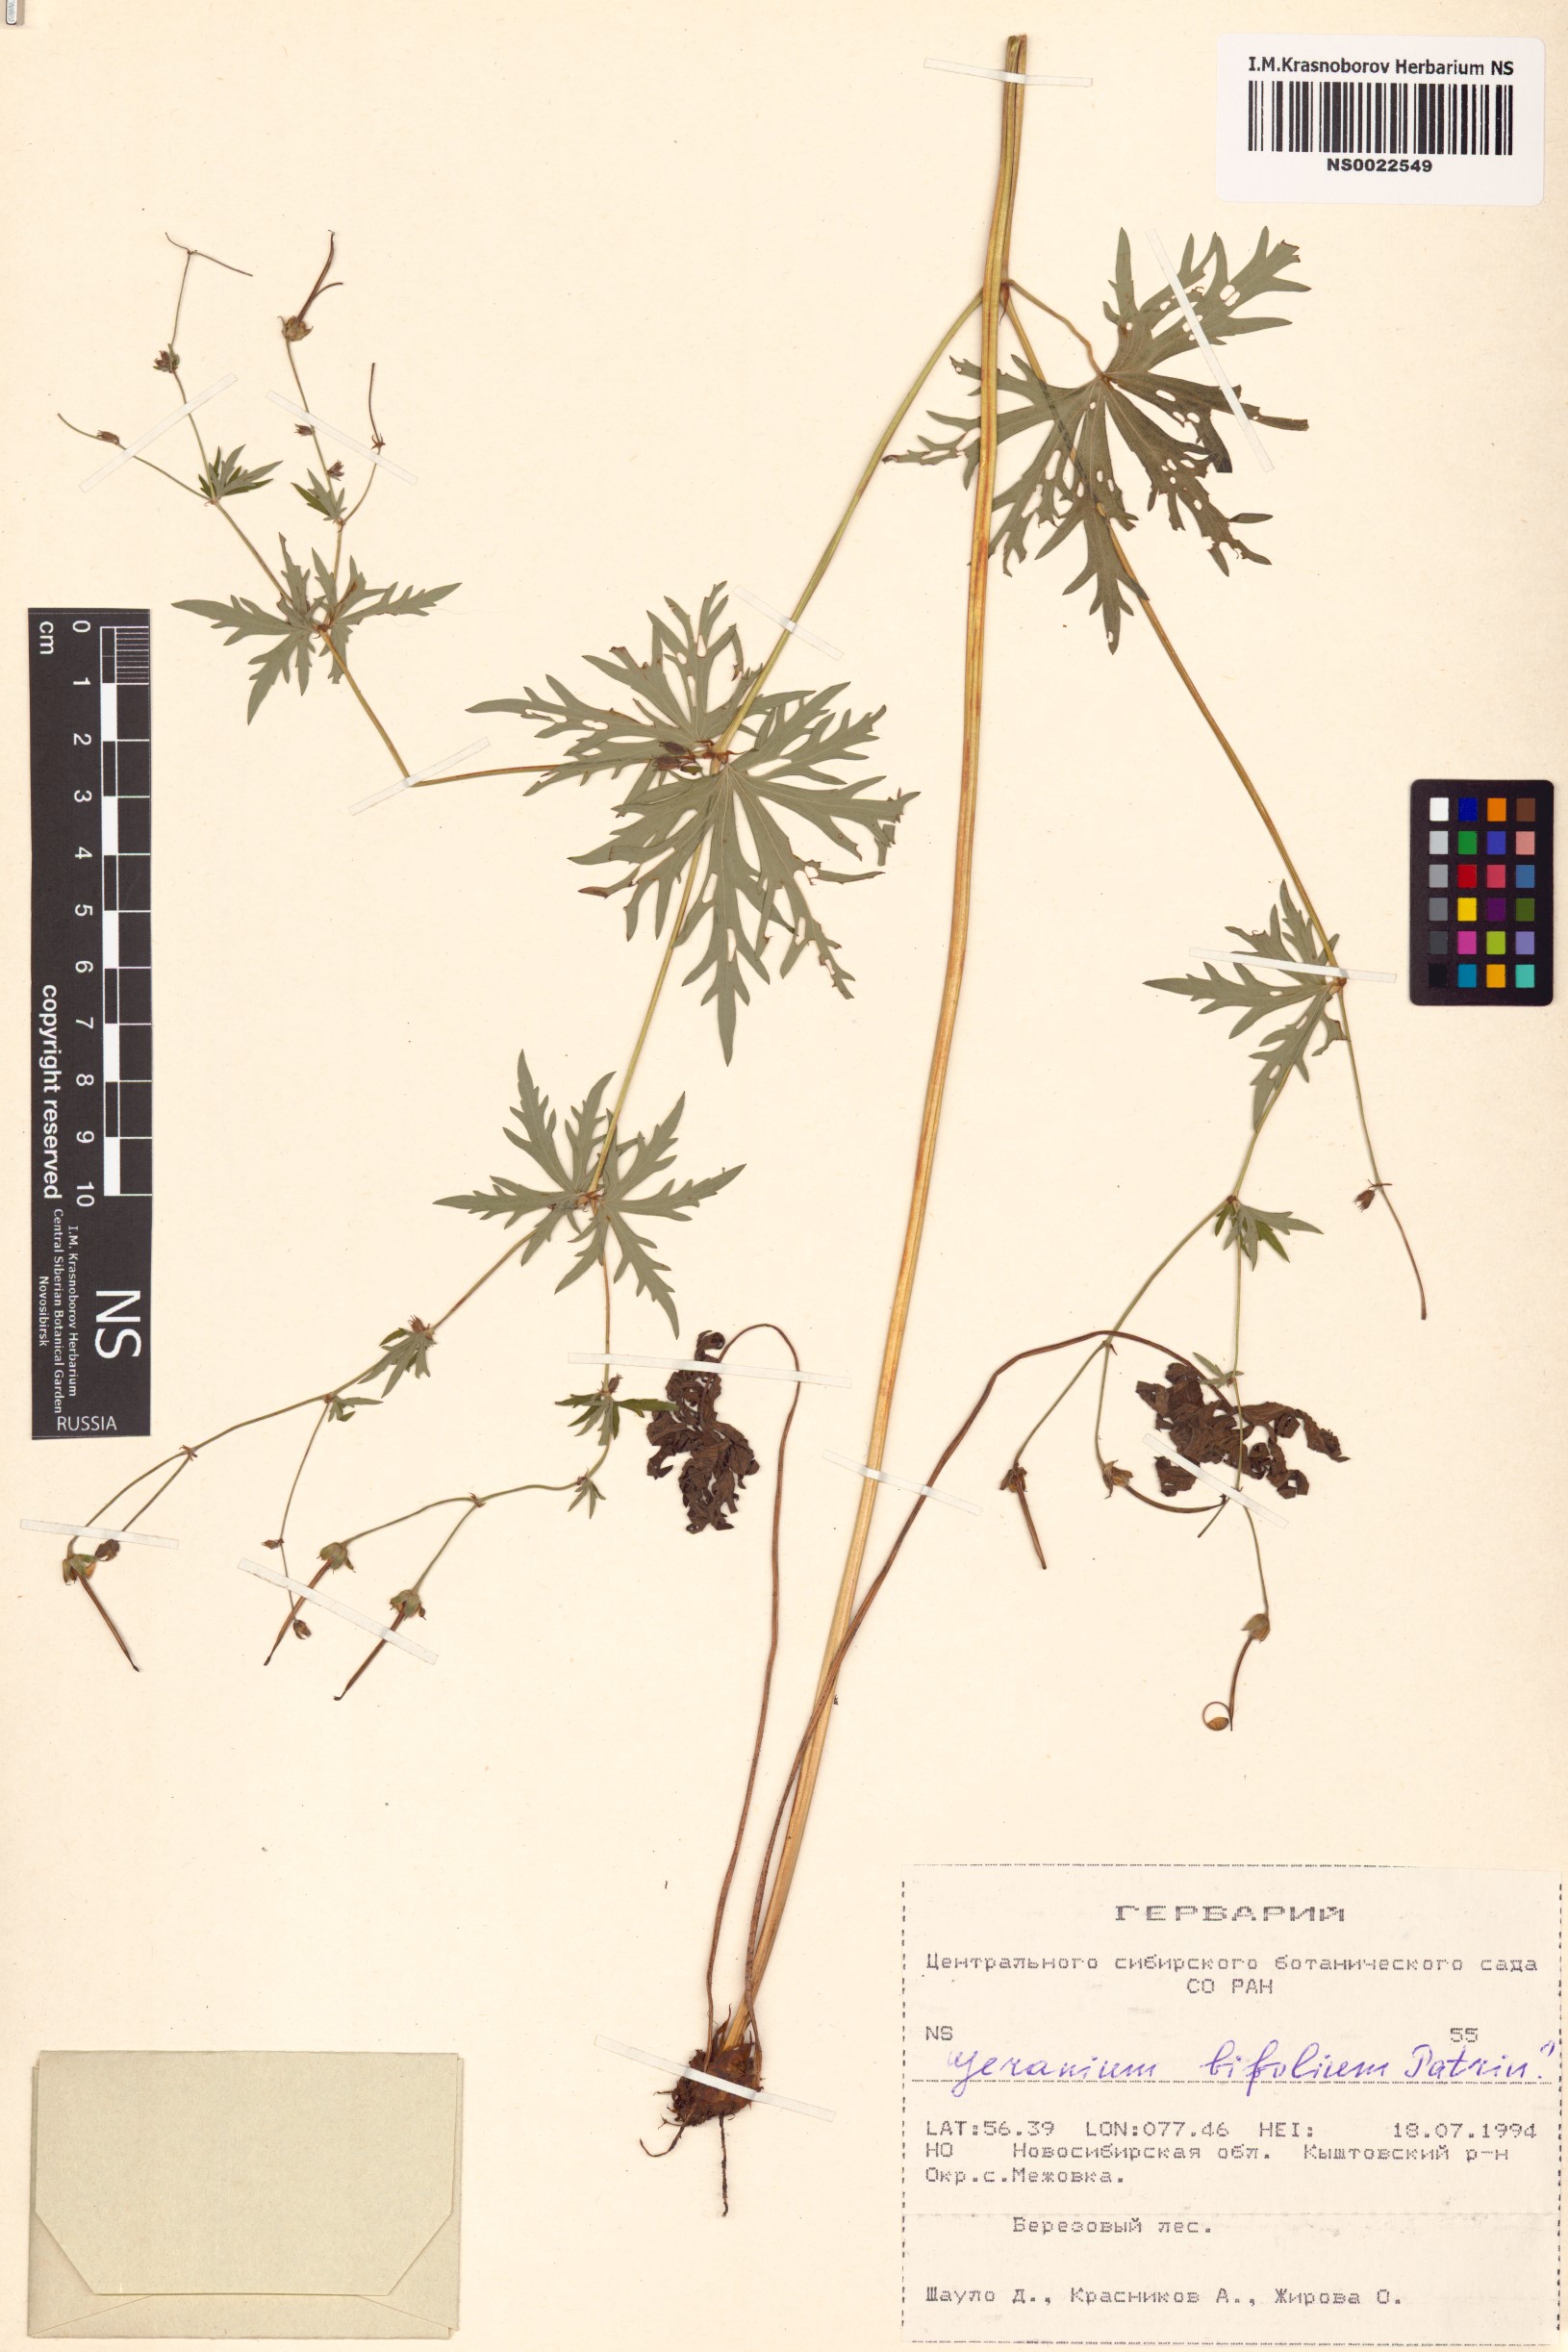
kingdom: Plantae
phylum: Tracheophyta
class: Magnoliopsida
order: Geraniales
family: Geraniaceae
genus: Geranium
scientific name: Geranium pseudosibiricum
